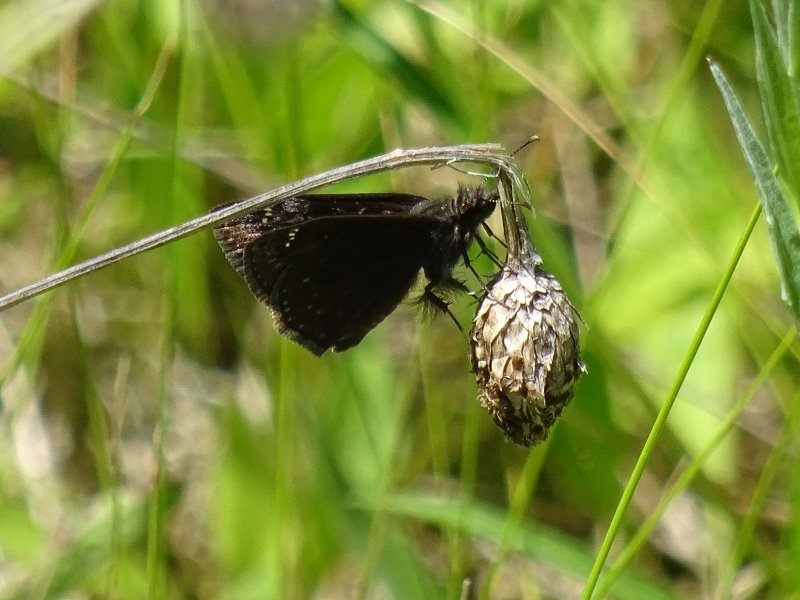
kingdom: Animalia
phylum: Arthropoda
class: Insecta
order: Lepidoptera
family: Hesperiidae
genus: Gesta
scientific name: Gesta
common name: Wild Indigo Duskywing
